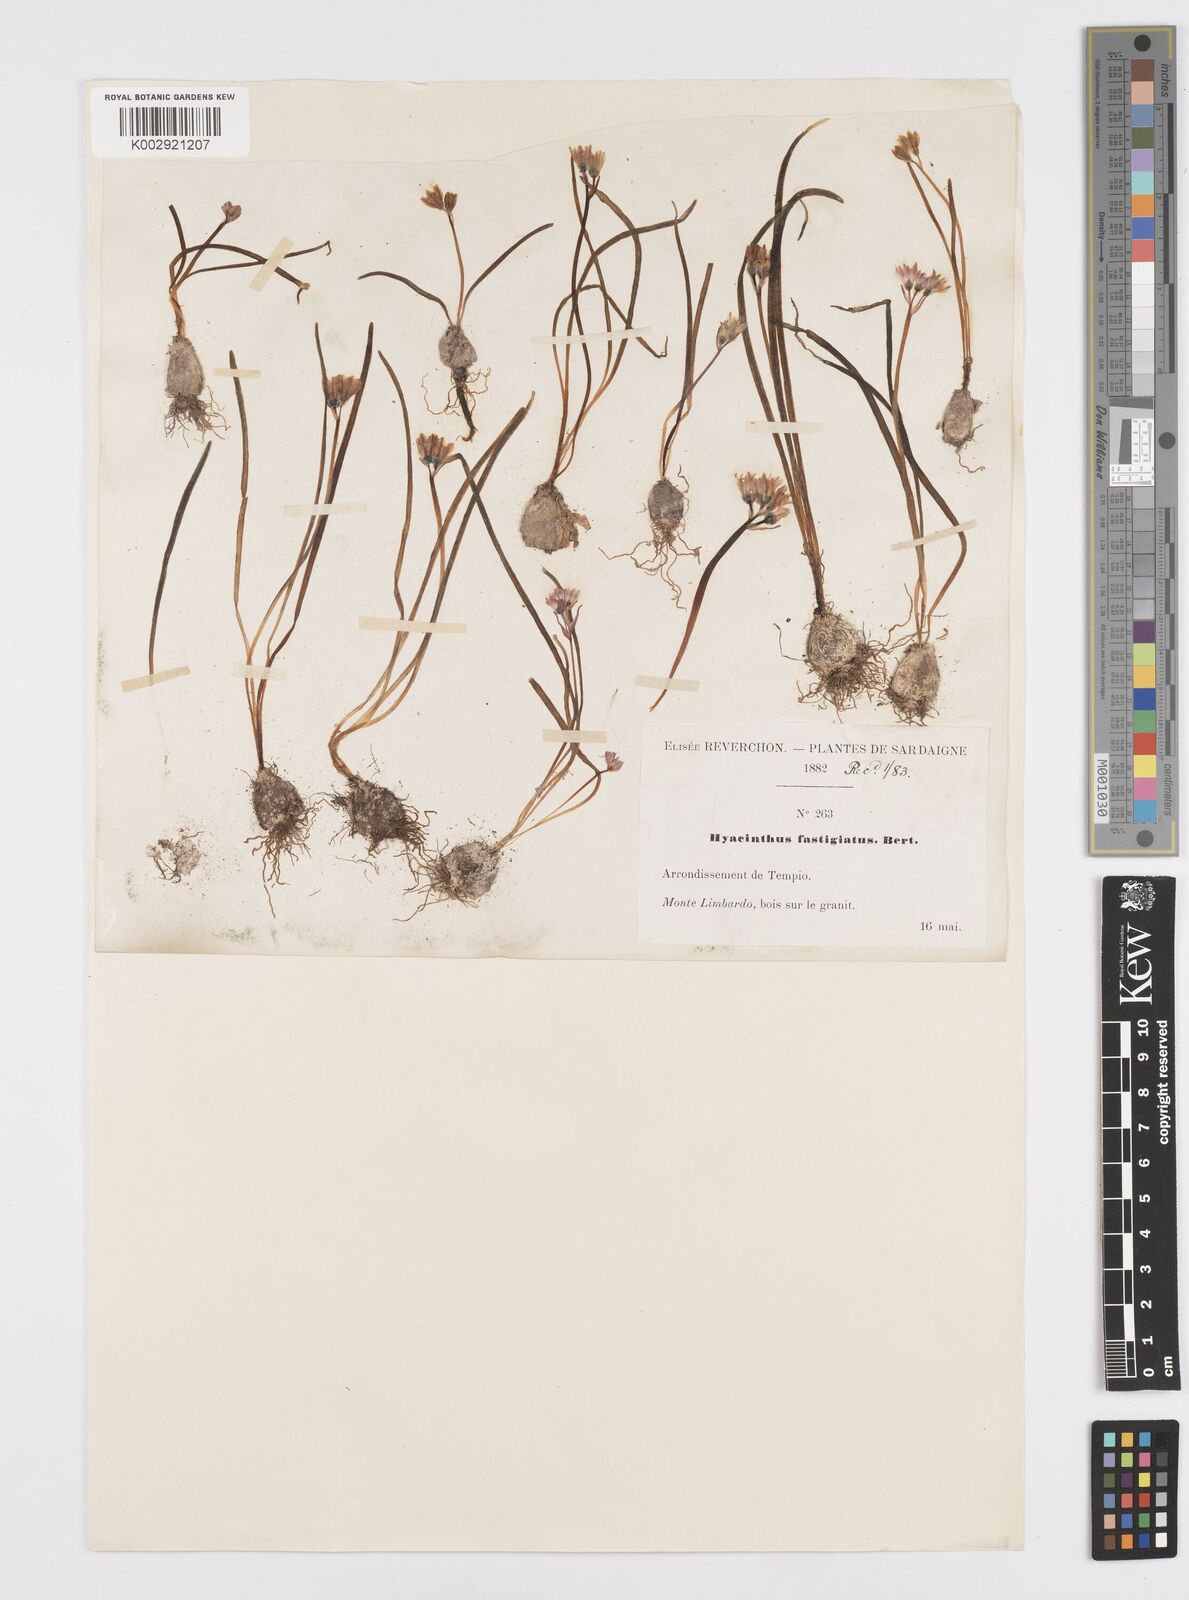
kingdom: Plantae
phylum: Tracheophyta
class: Liliopsida
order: Asparagales
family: Asparagaceae
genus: Brimeura
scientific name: Brimeura fastigiata
